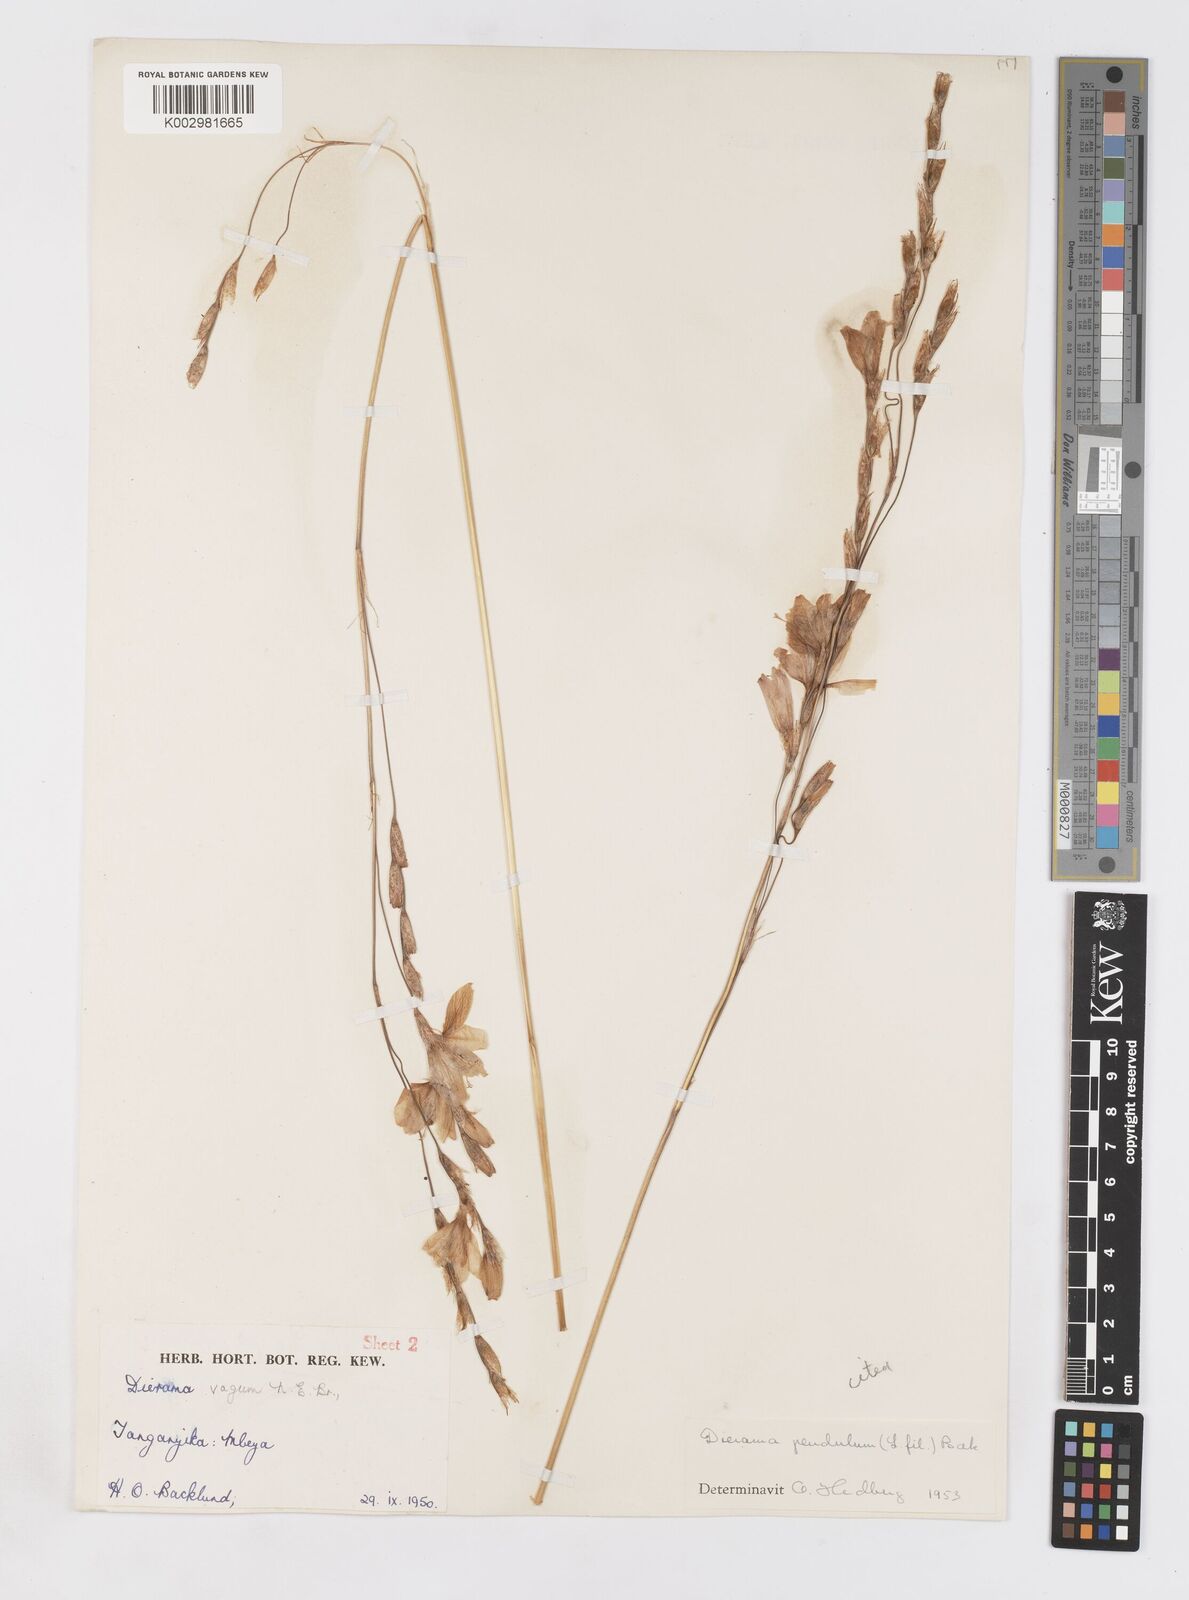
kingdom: Plantae
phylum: Tracheophyta
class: Liliopsida
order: Asparagales
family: Iridaceae
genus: Dierama
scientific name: Dierama longistylum
